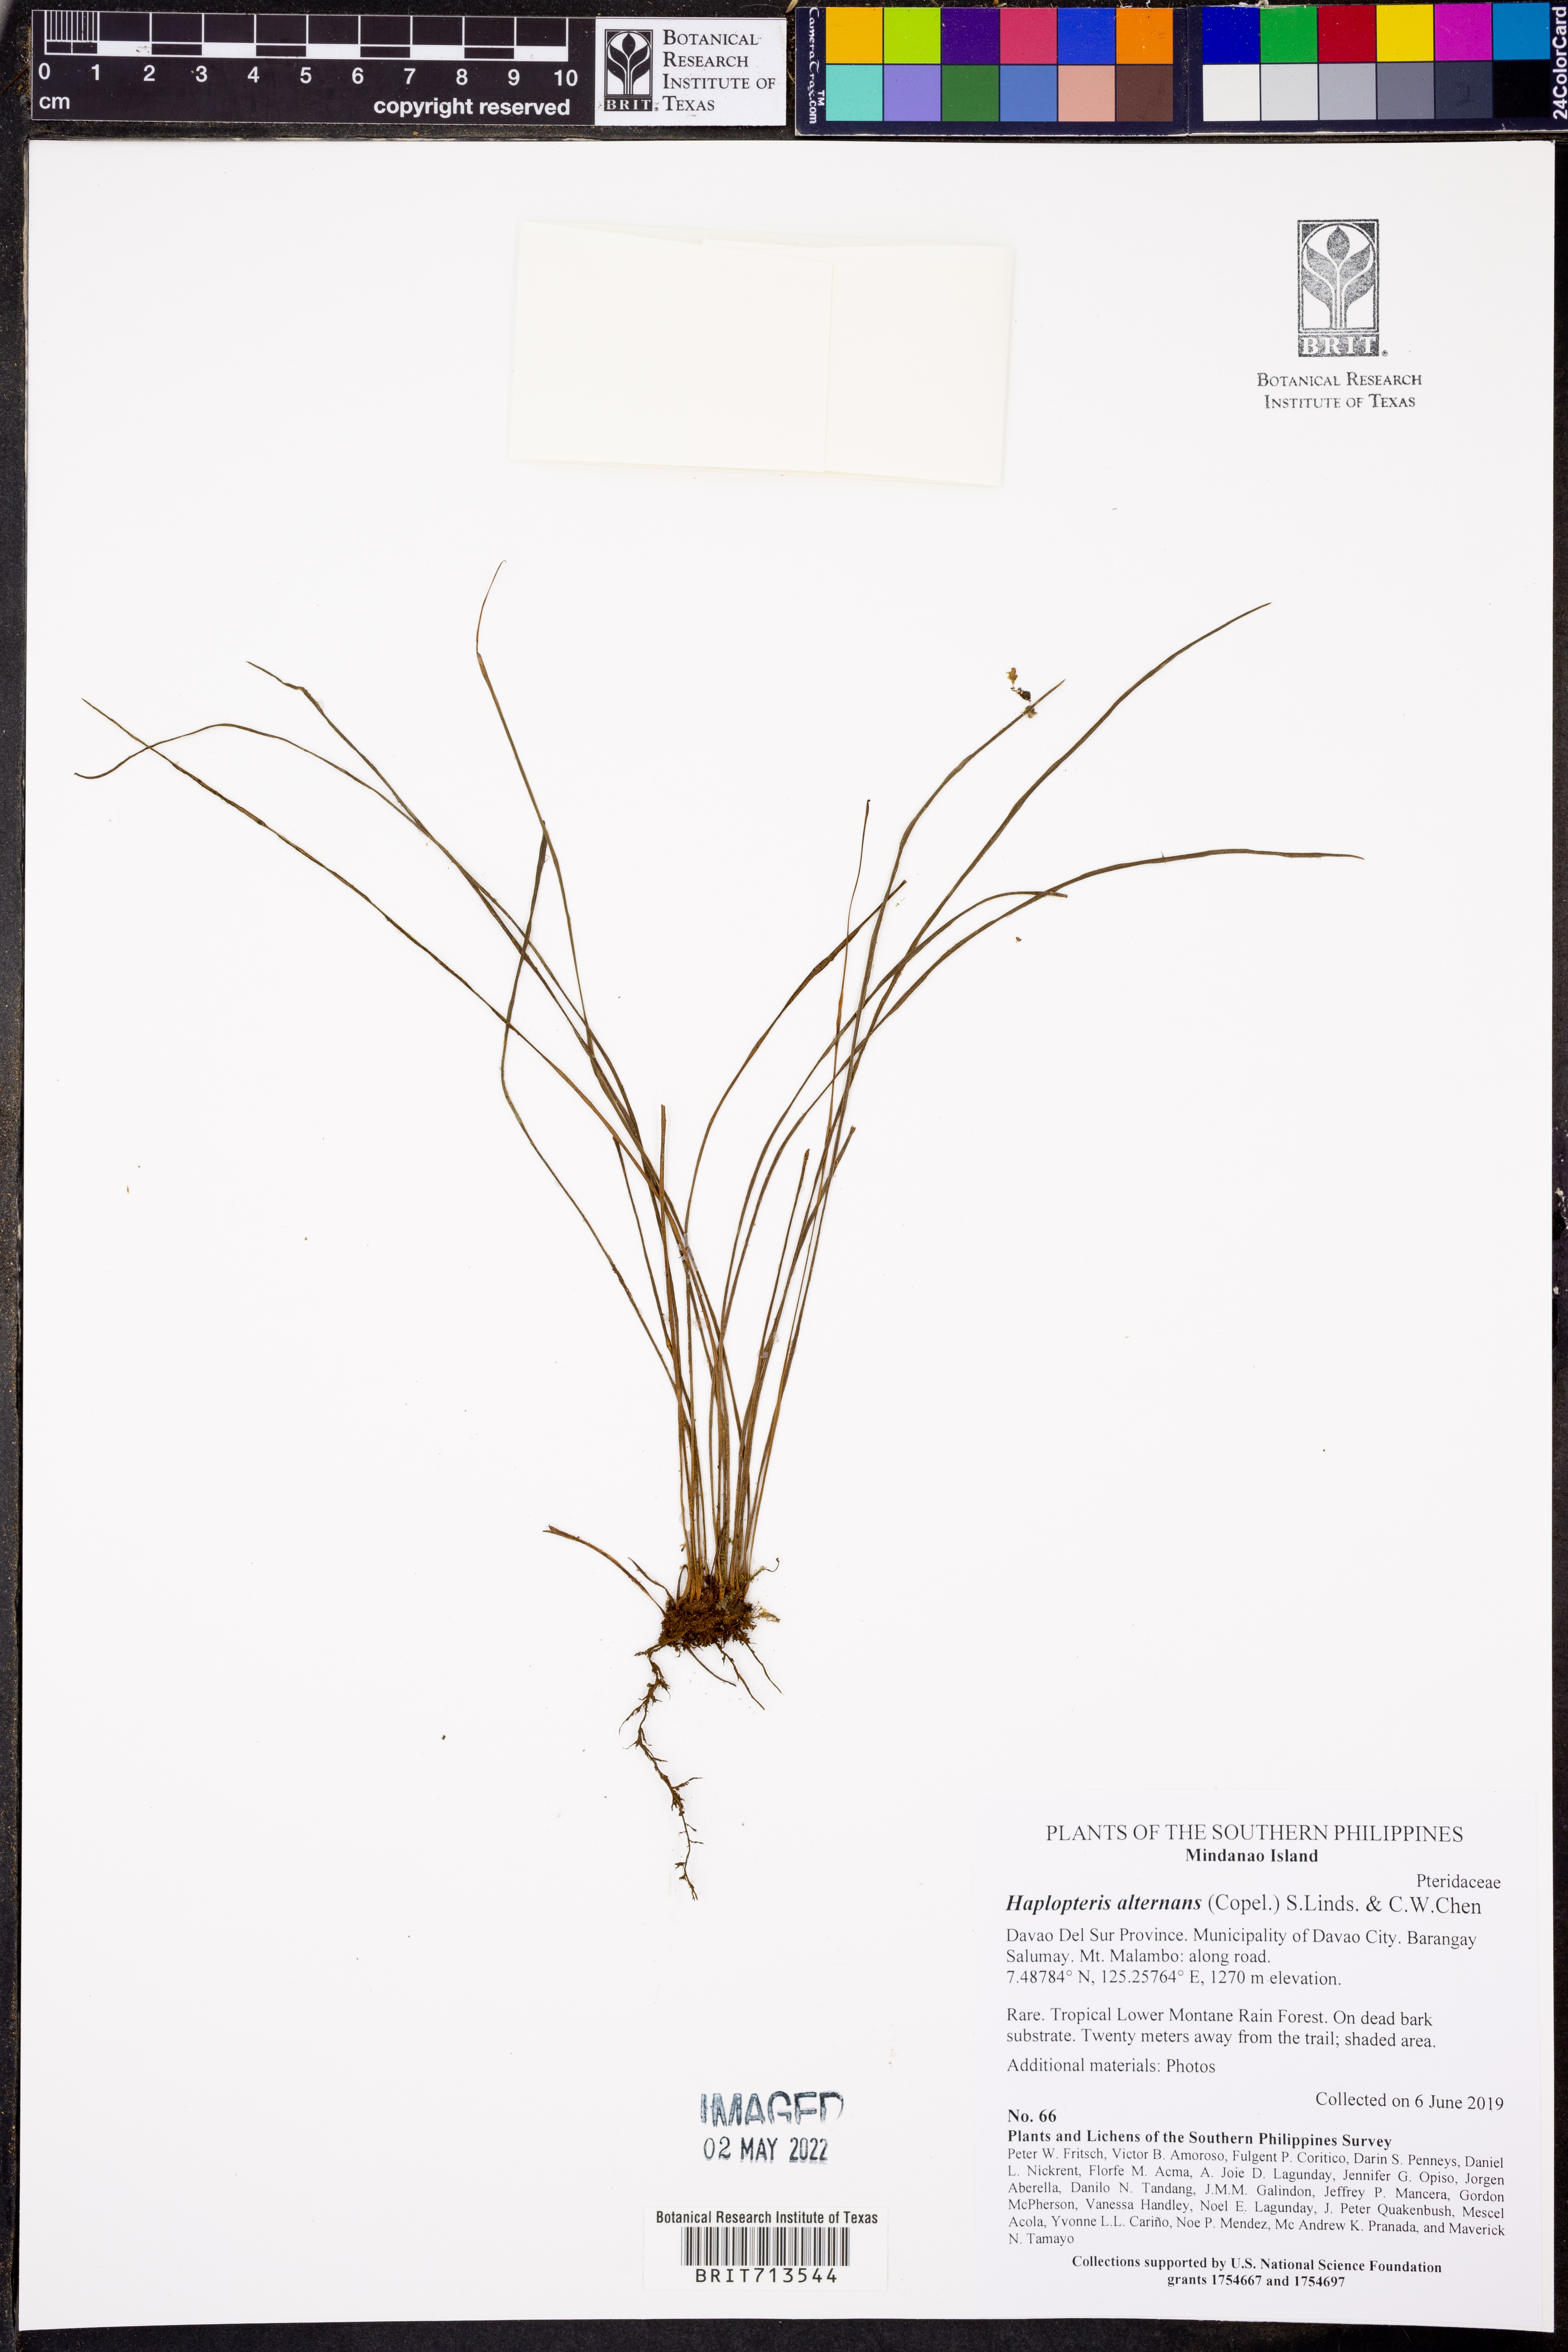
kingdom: Plantae
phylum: Tracheophyta
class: Polypodiopsida
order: Polypodiales
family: Pteridaceae
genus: Haplopteris
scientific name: Haplopteris alternans
